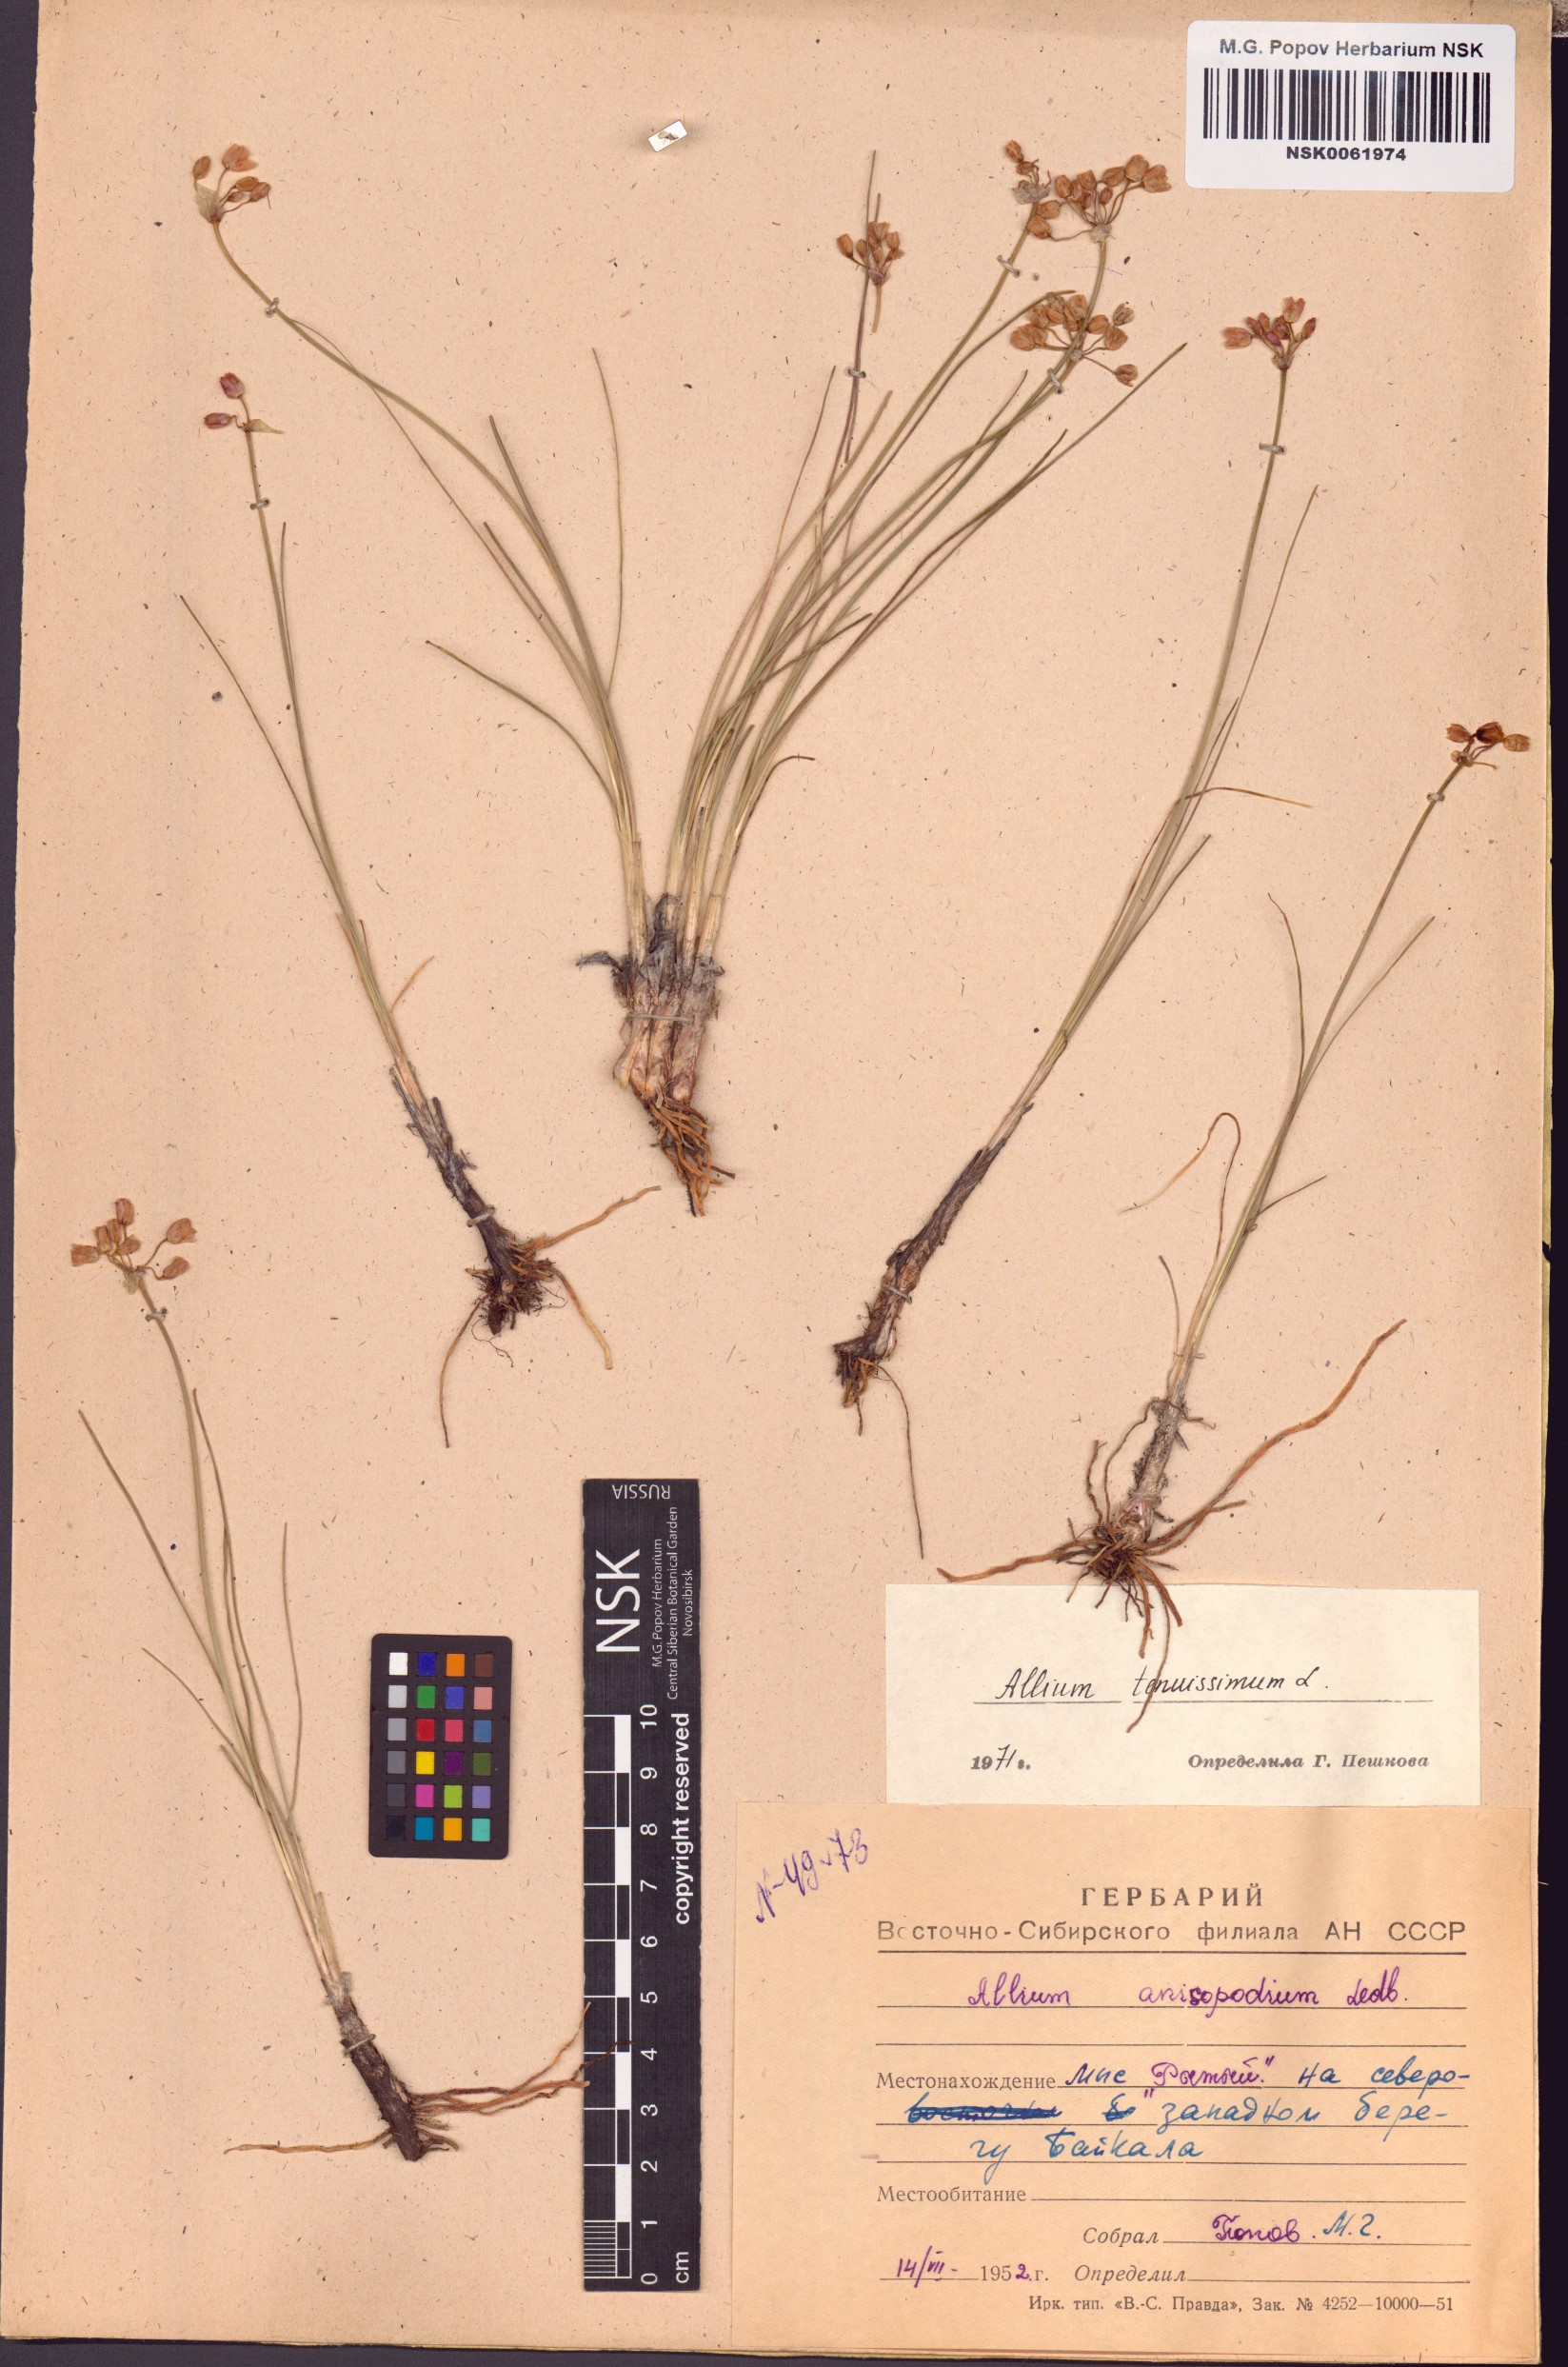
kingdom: Plantae
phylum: Tracheophyta
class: Liliopsida
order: Asparagales
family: Amaryllidaceae
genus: Allium
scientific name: Allium tenuissimum
